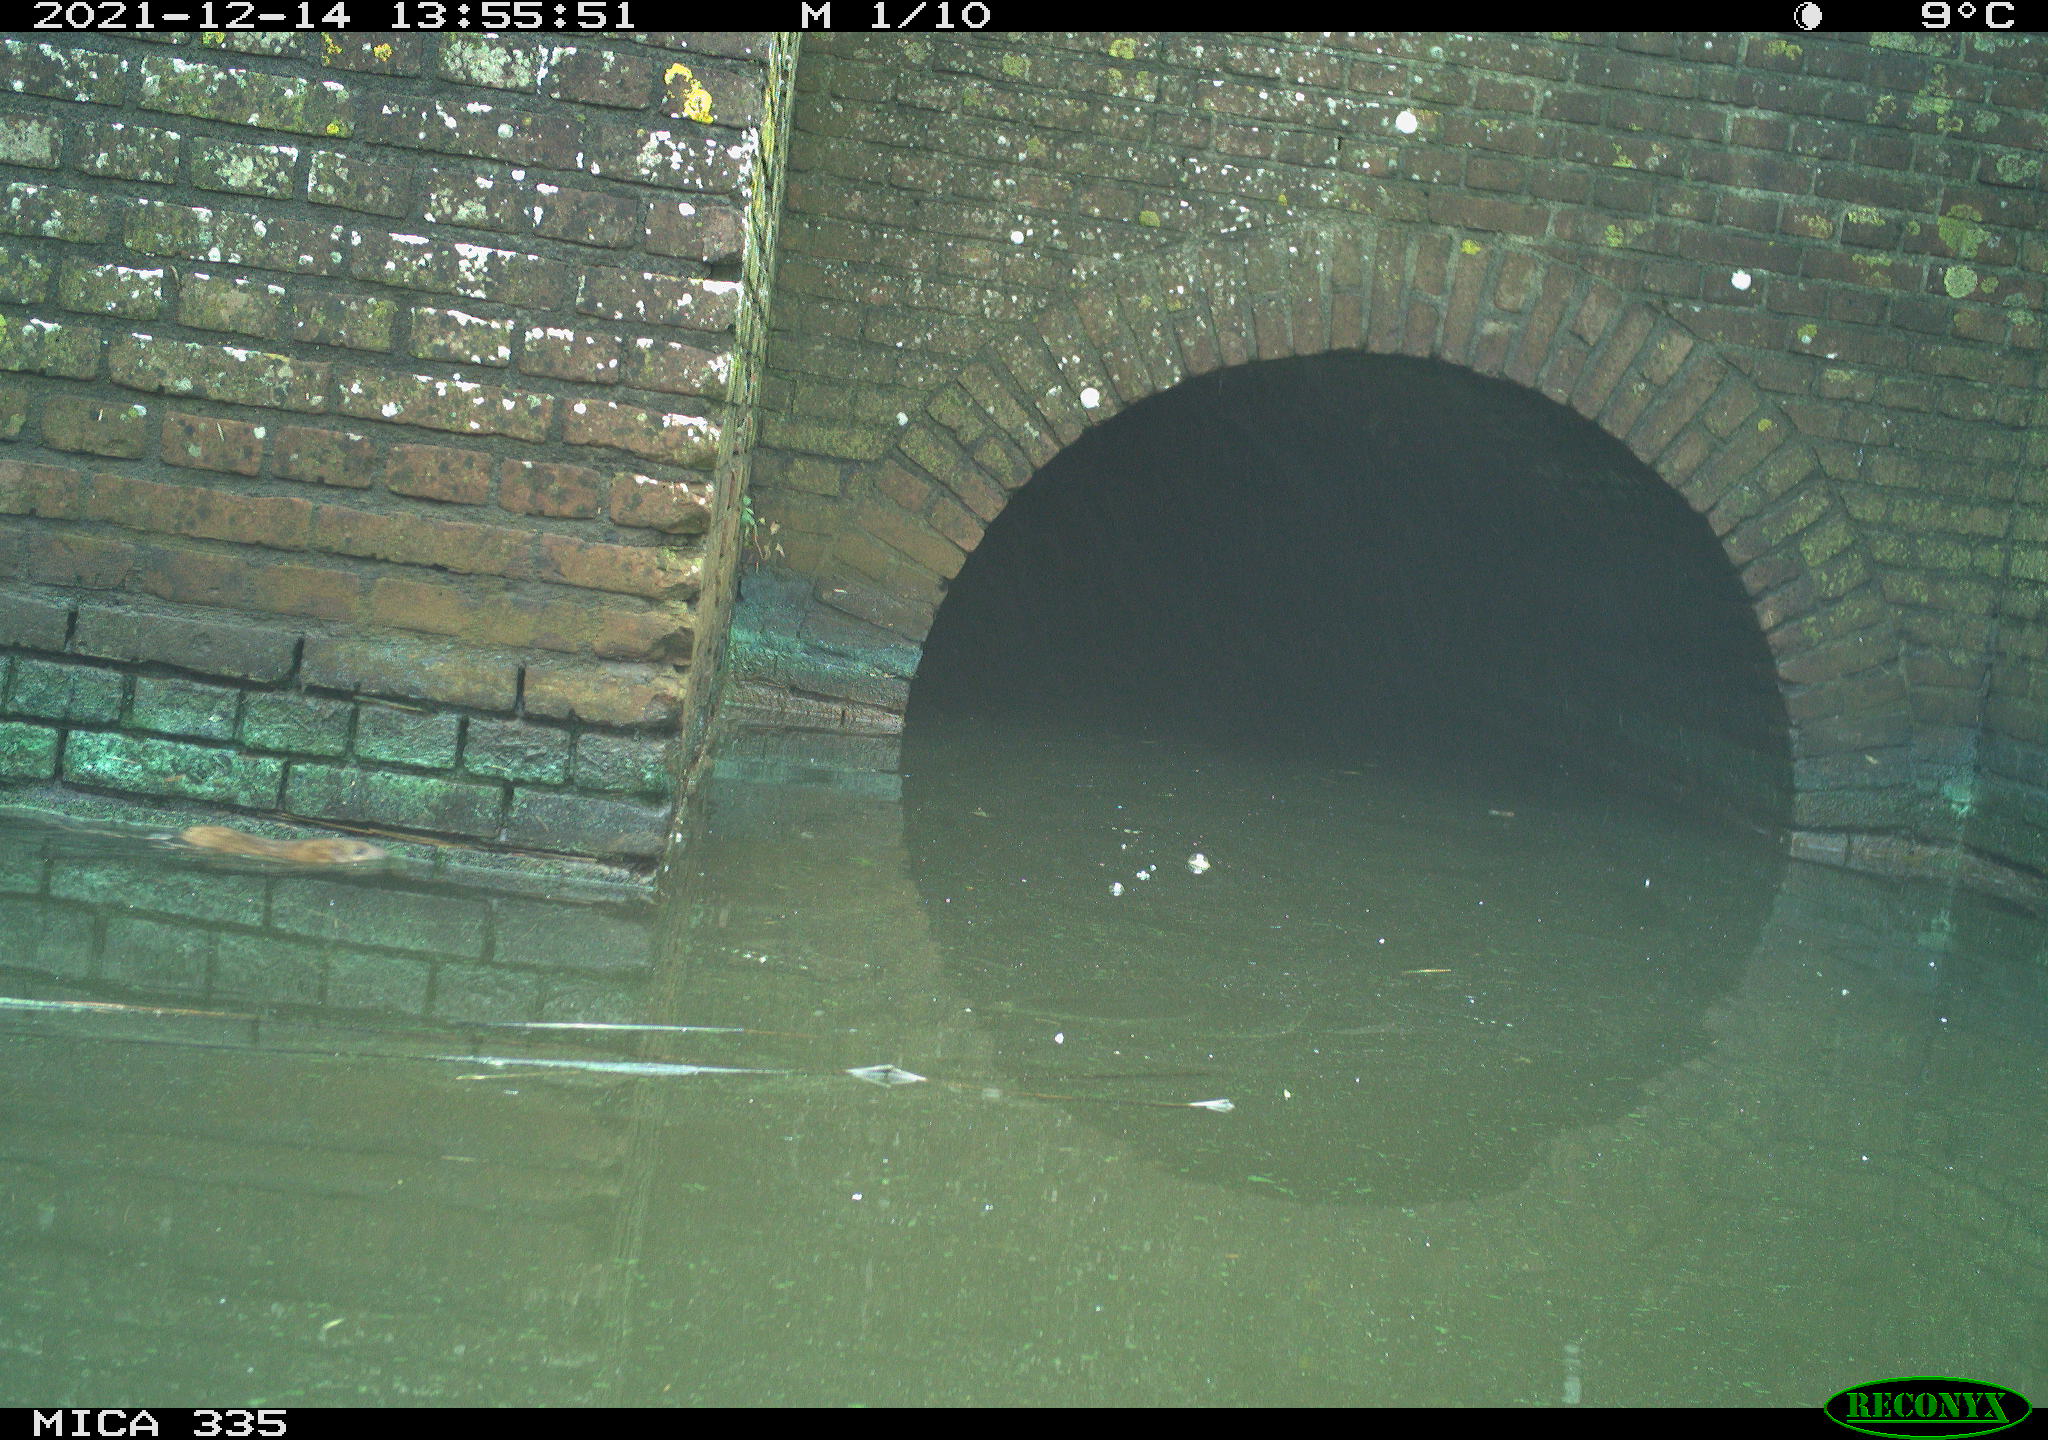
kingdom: Animalia
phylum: Chordata
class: Mammalia
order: Rodentia
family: Muridae
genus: Rattus
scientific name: Rattus norvegicus
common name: Brown rat
